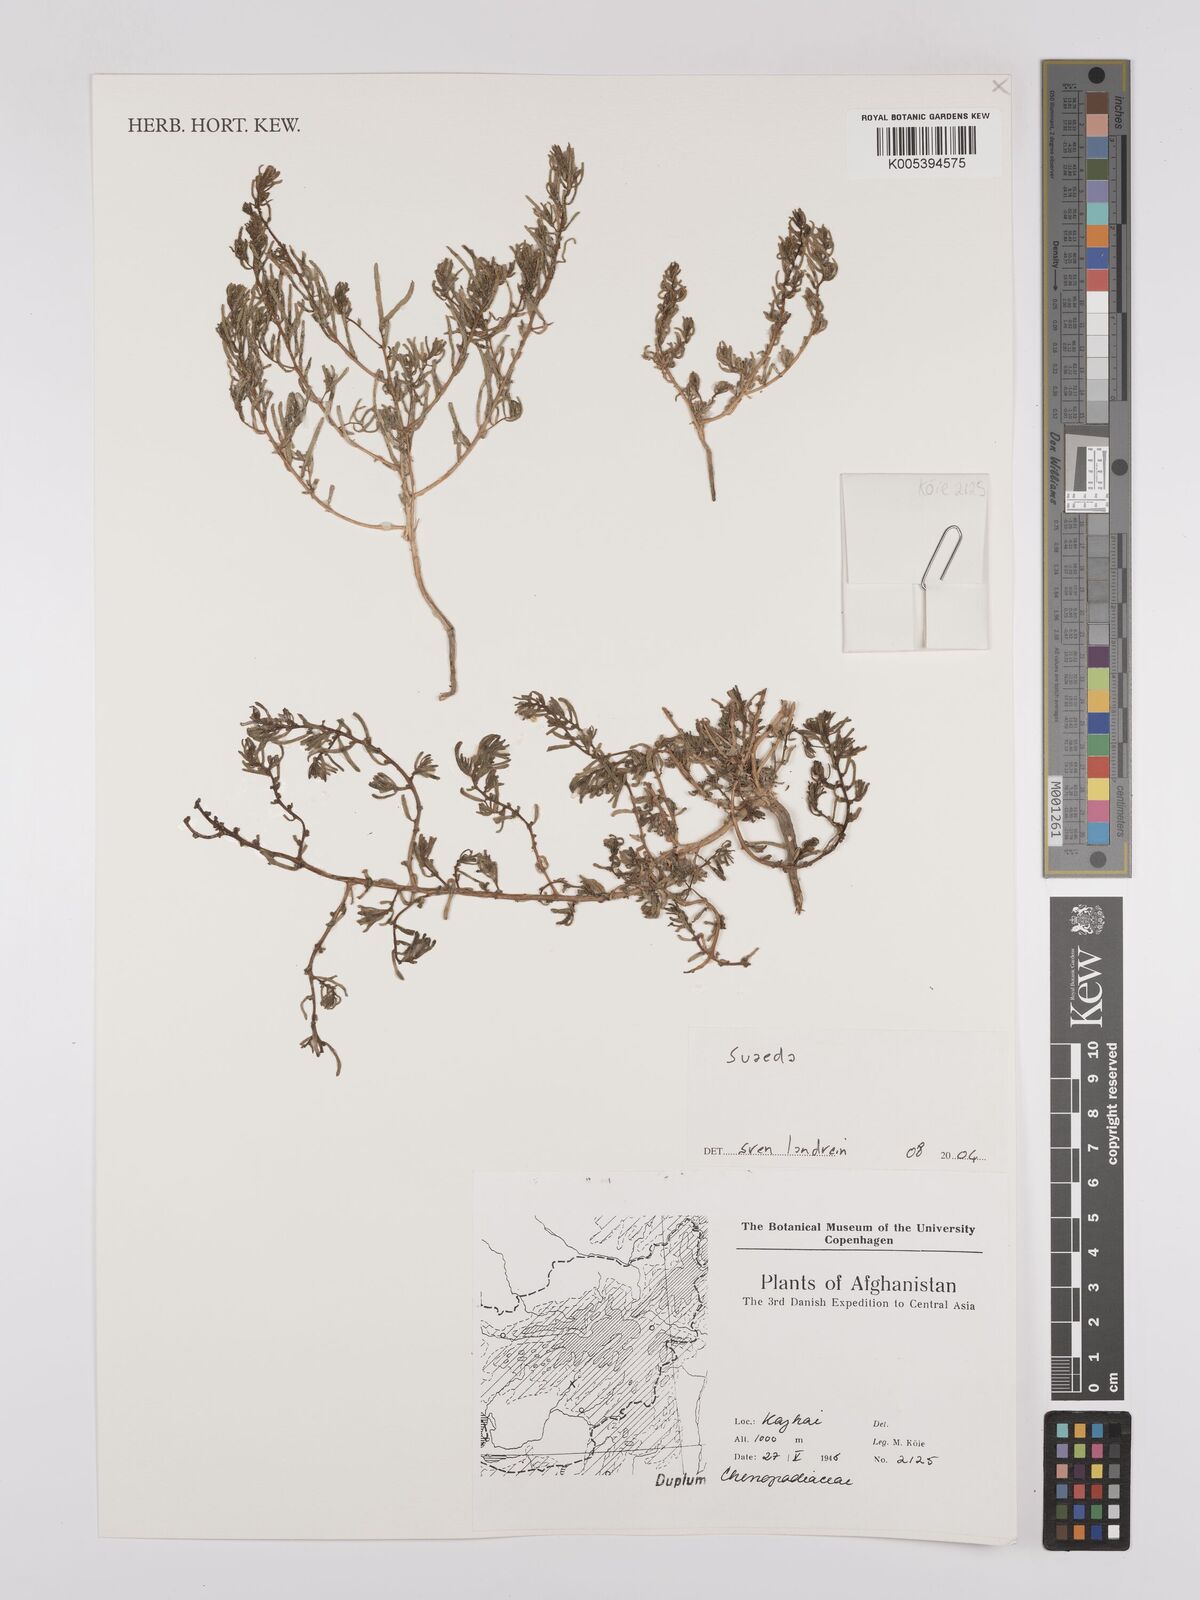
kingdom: Plantae
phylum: Tracheophyta
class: Magnoliopsida
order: Caryophyllales
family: Amaranthaceae
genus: Suaeda
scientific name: Suaeda
